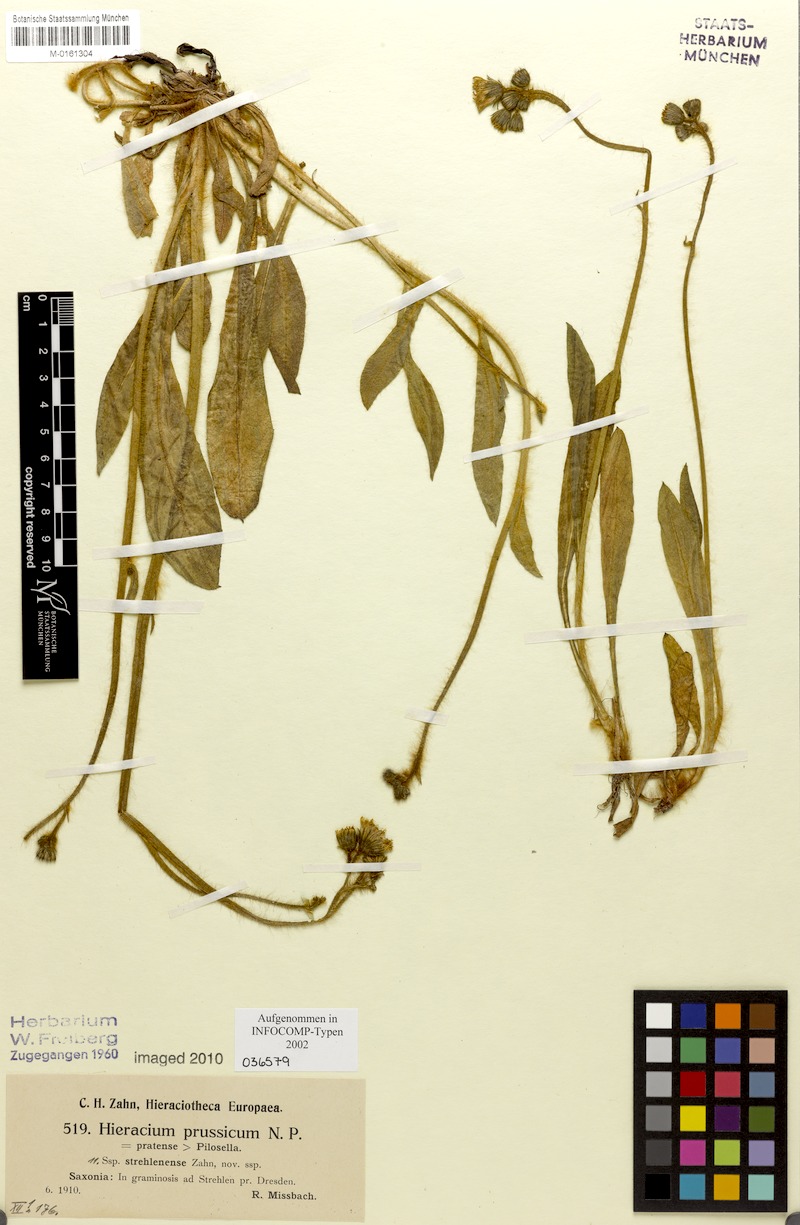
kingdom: Plantae
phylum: Tracheophyta
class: Magnoliopsida
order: Asterales
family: Asteraceae
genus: Pilosella
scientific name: Pilosella prussica
